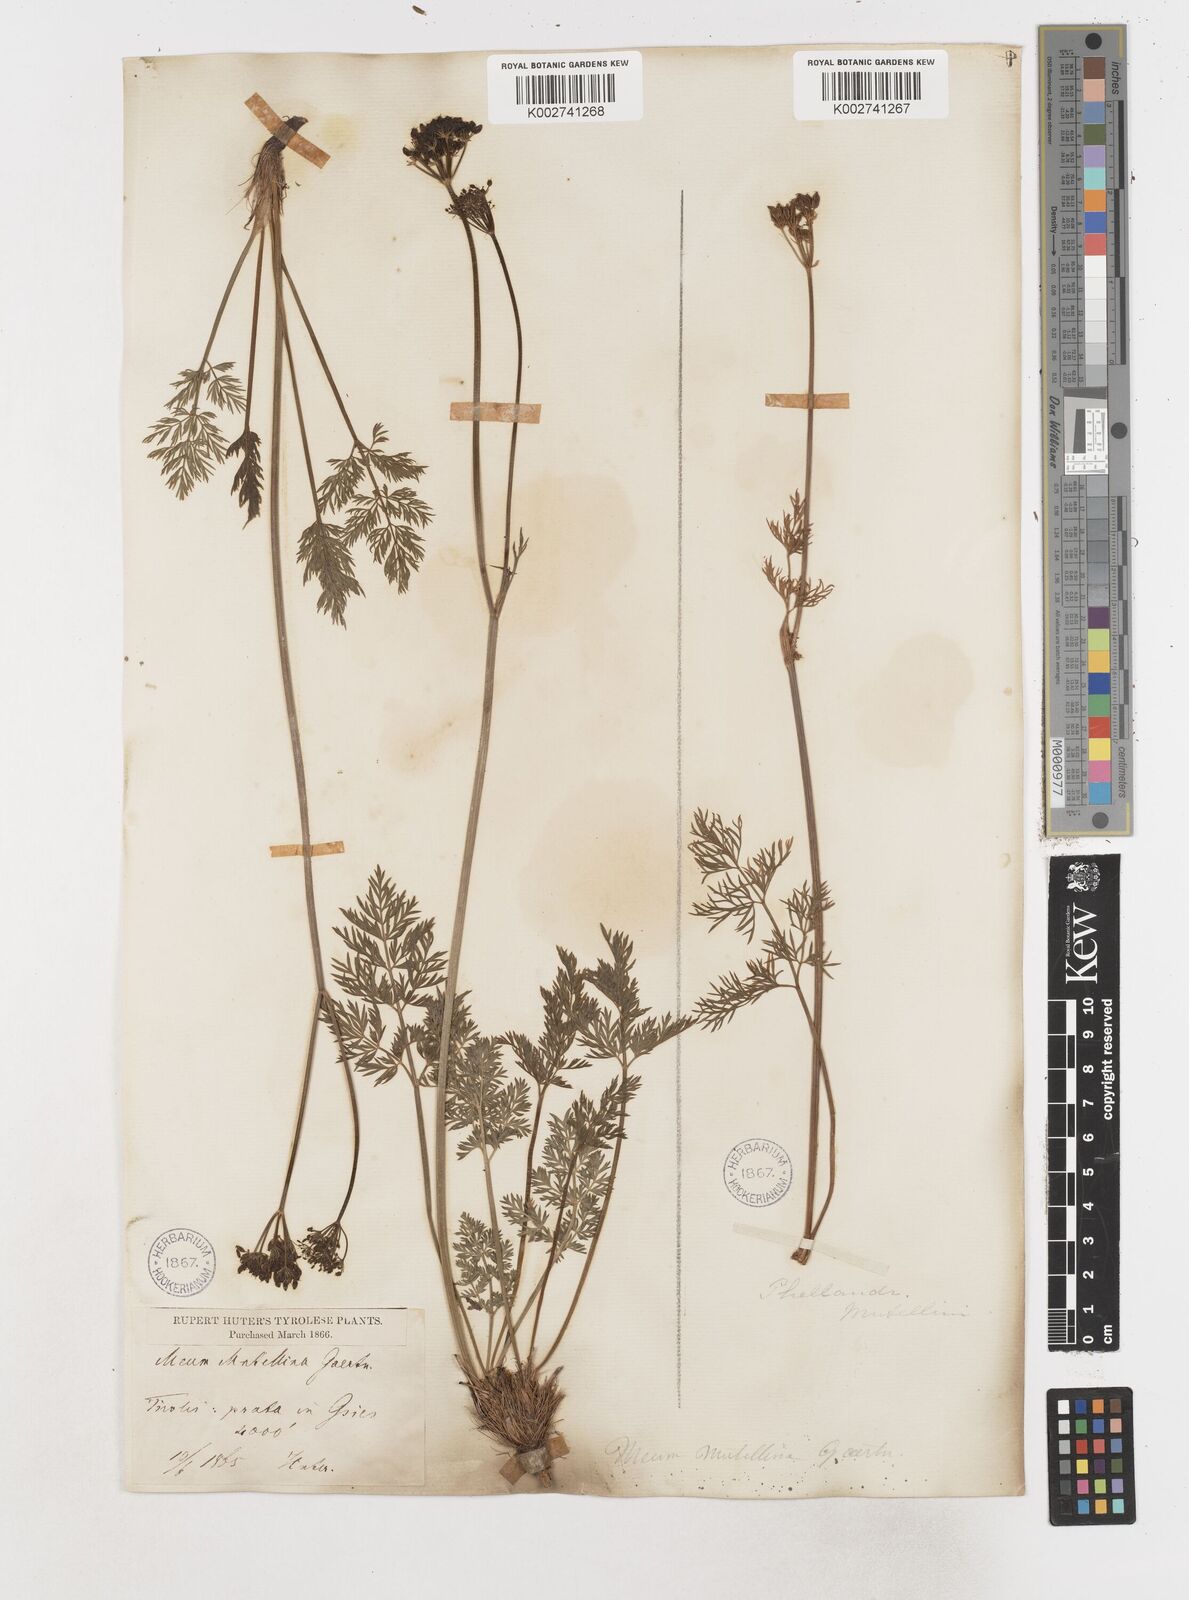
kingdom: Plantae
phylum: Tracheophyta
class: Magnoliopsida
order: Apiales
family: Apiaceae
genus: Mutellina
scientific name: Mutellina adonidifolia
